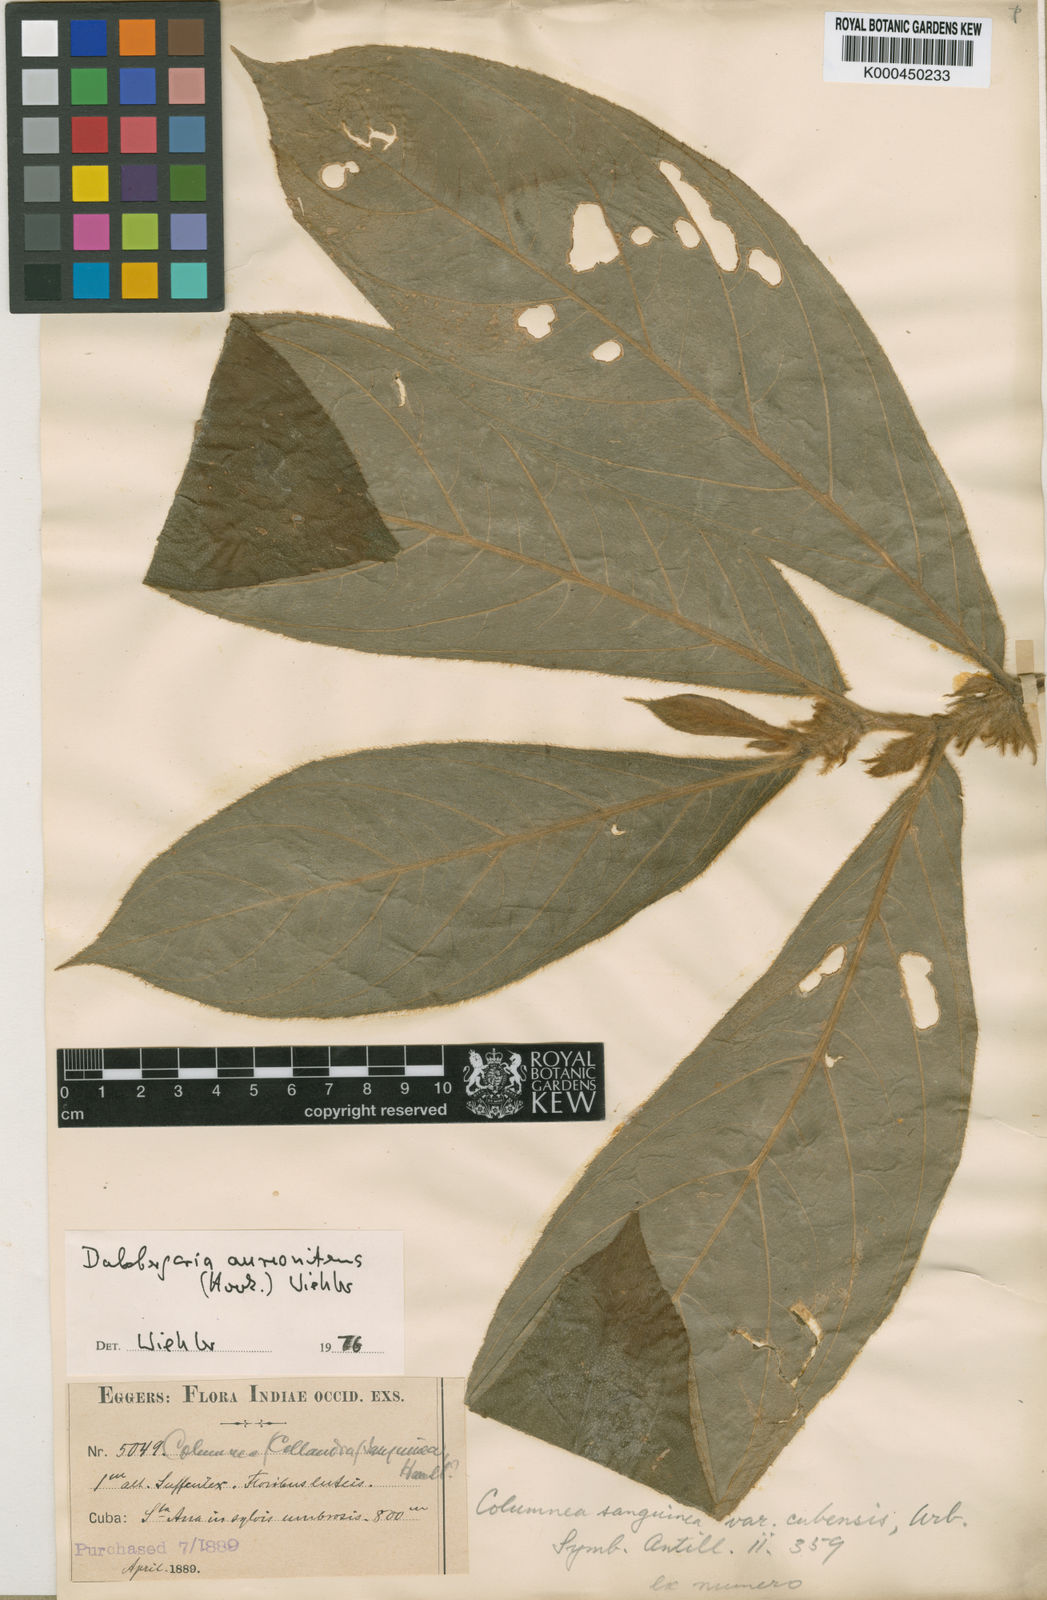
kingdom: Plantae
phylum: Tracheophyta
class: Magnoliopsida
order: Lamiales
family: Gesneriaceae
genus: Columnea
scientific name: Columnea sanguinea
